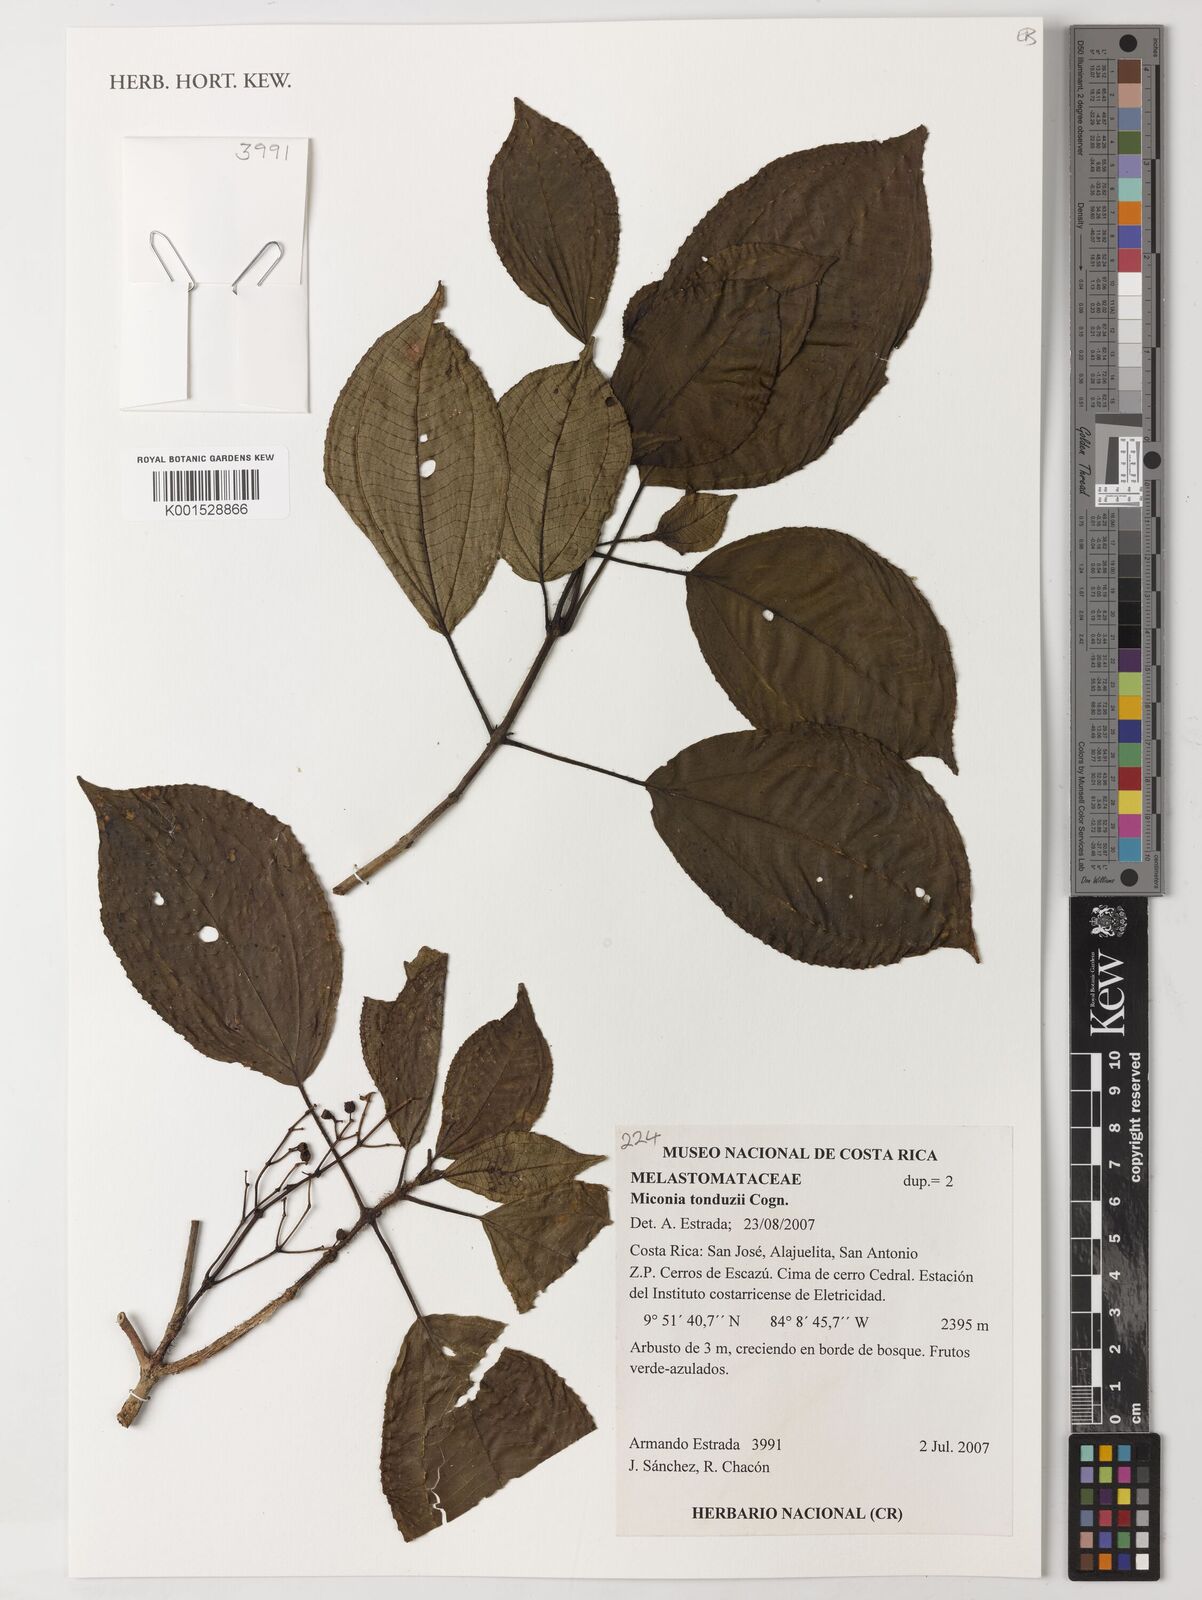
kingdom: Plantae
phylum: Tracheophyta
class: Magnoliopsida
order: Myrtales
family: Melastomataceae
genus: Miconia
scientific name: Miconia tonduzii
